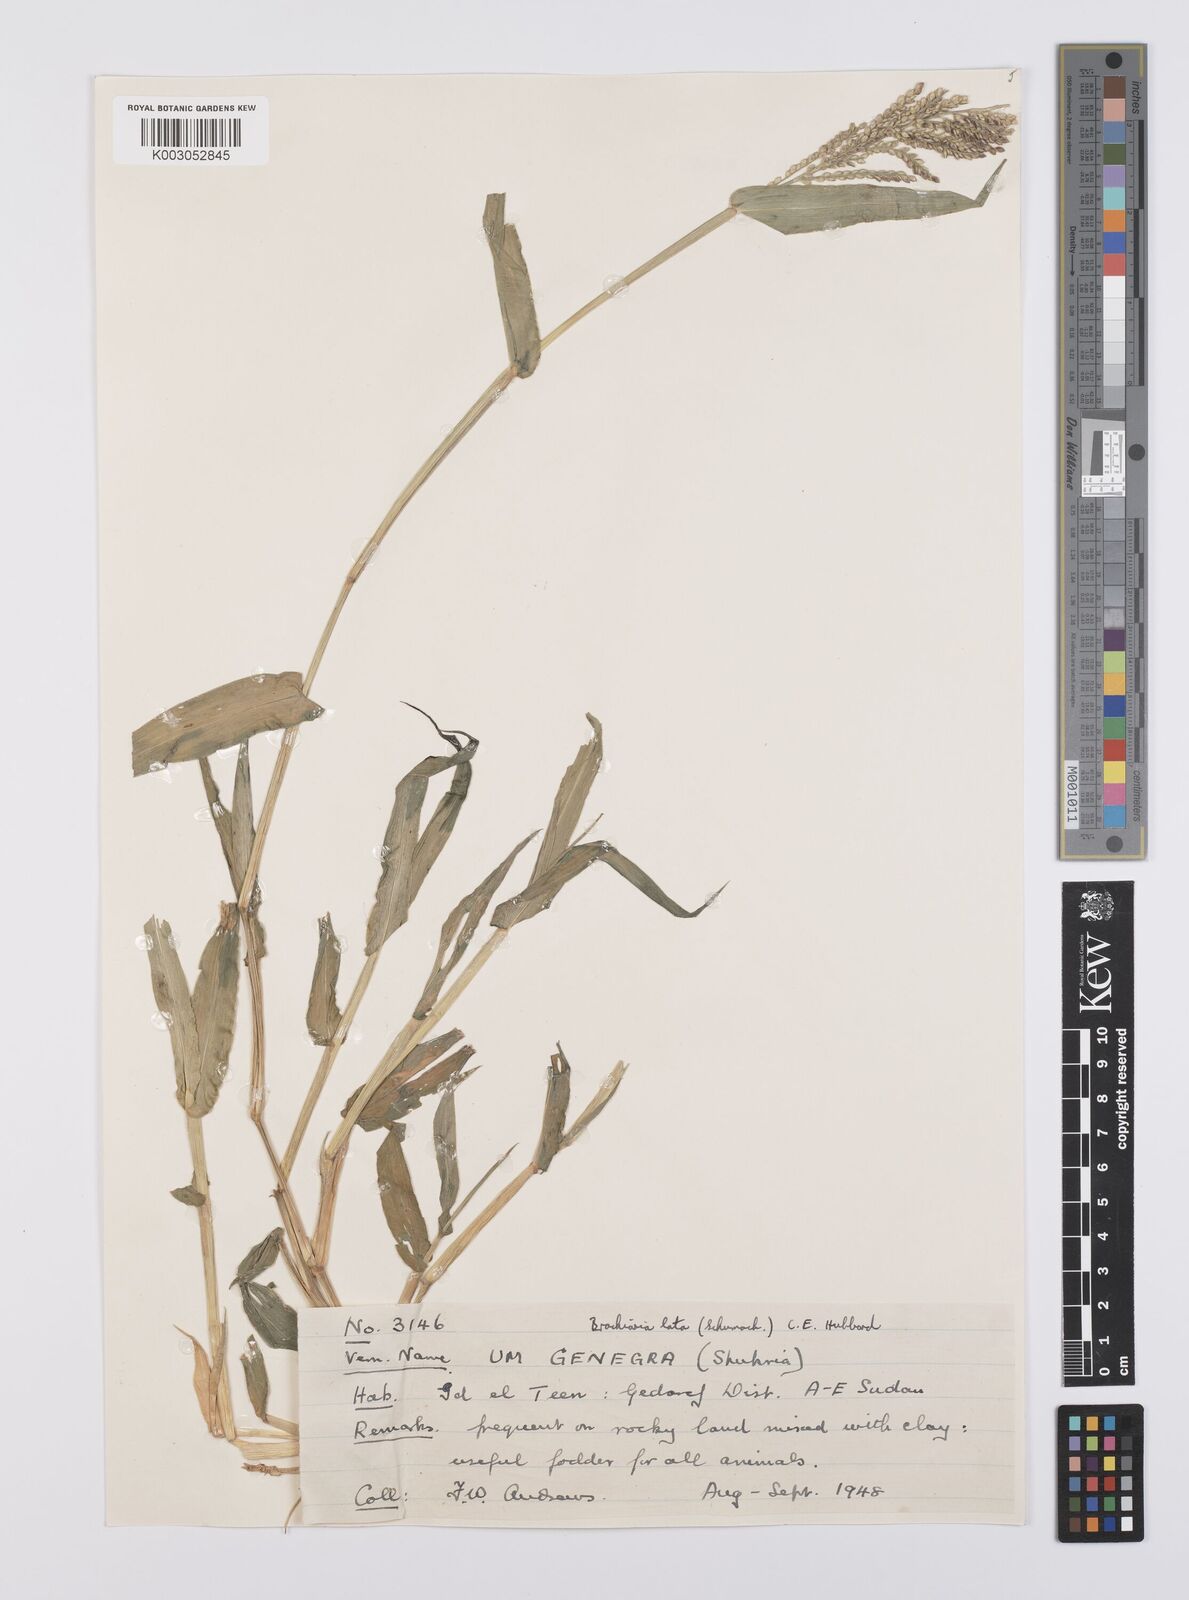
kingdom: Plantae
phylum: Tracheophyta
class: Liliopsida
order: Poales
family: Poaceae
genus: Urochloa
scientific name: Urochloa lata
